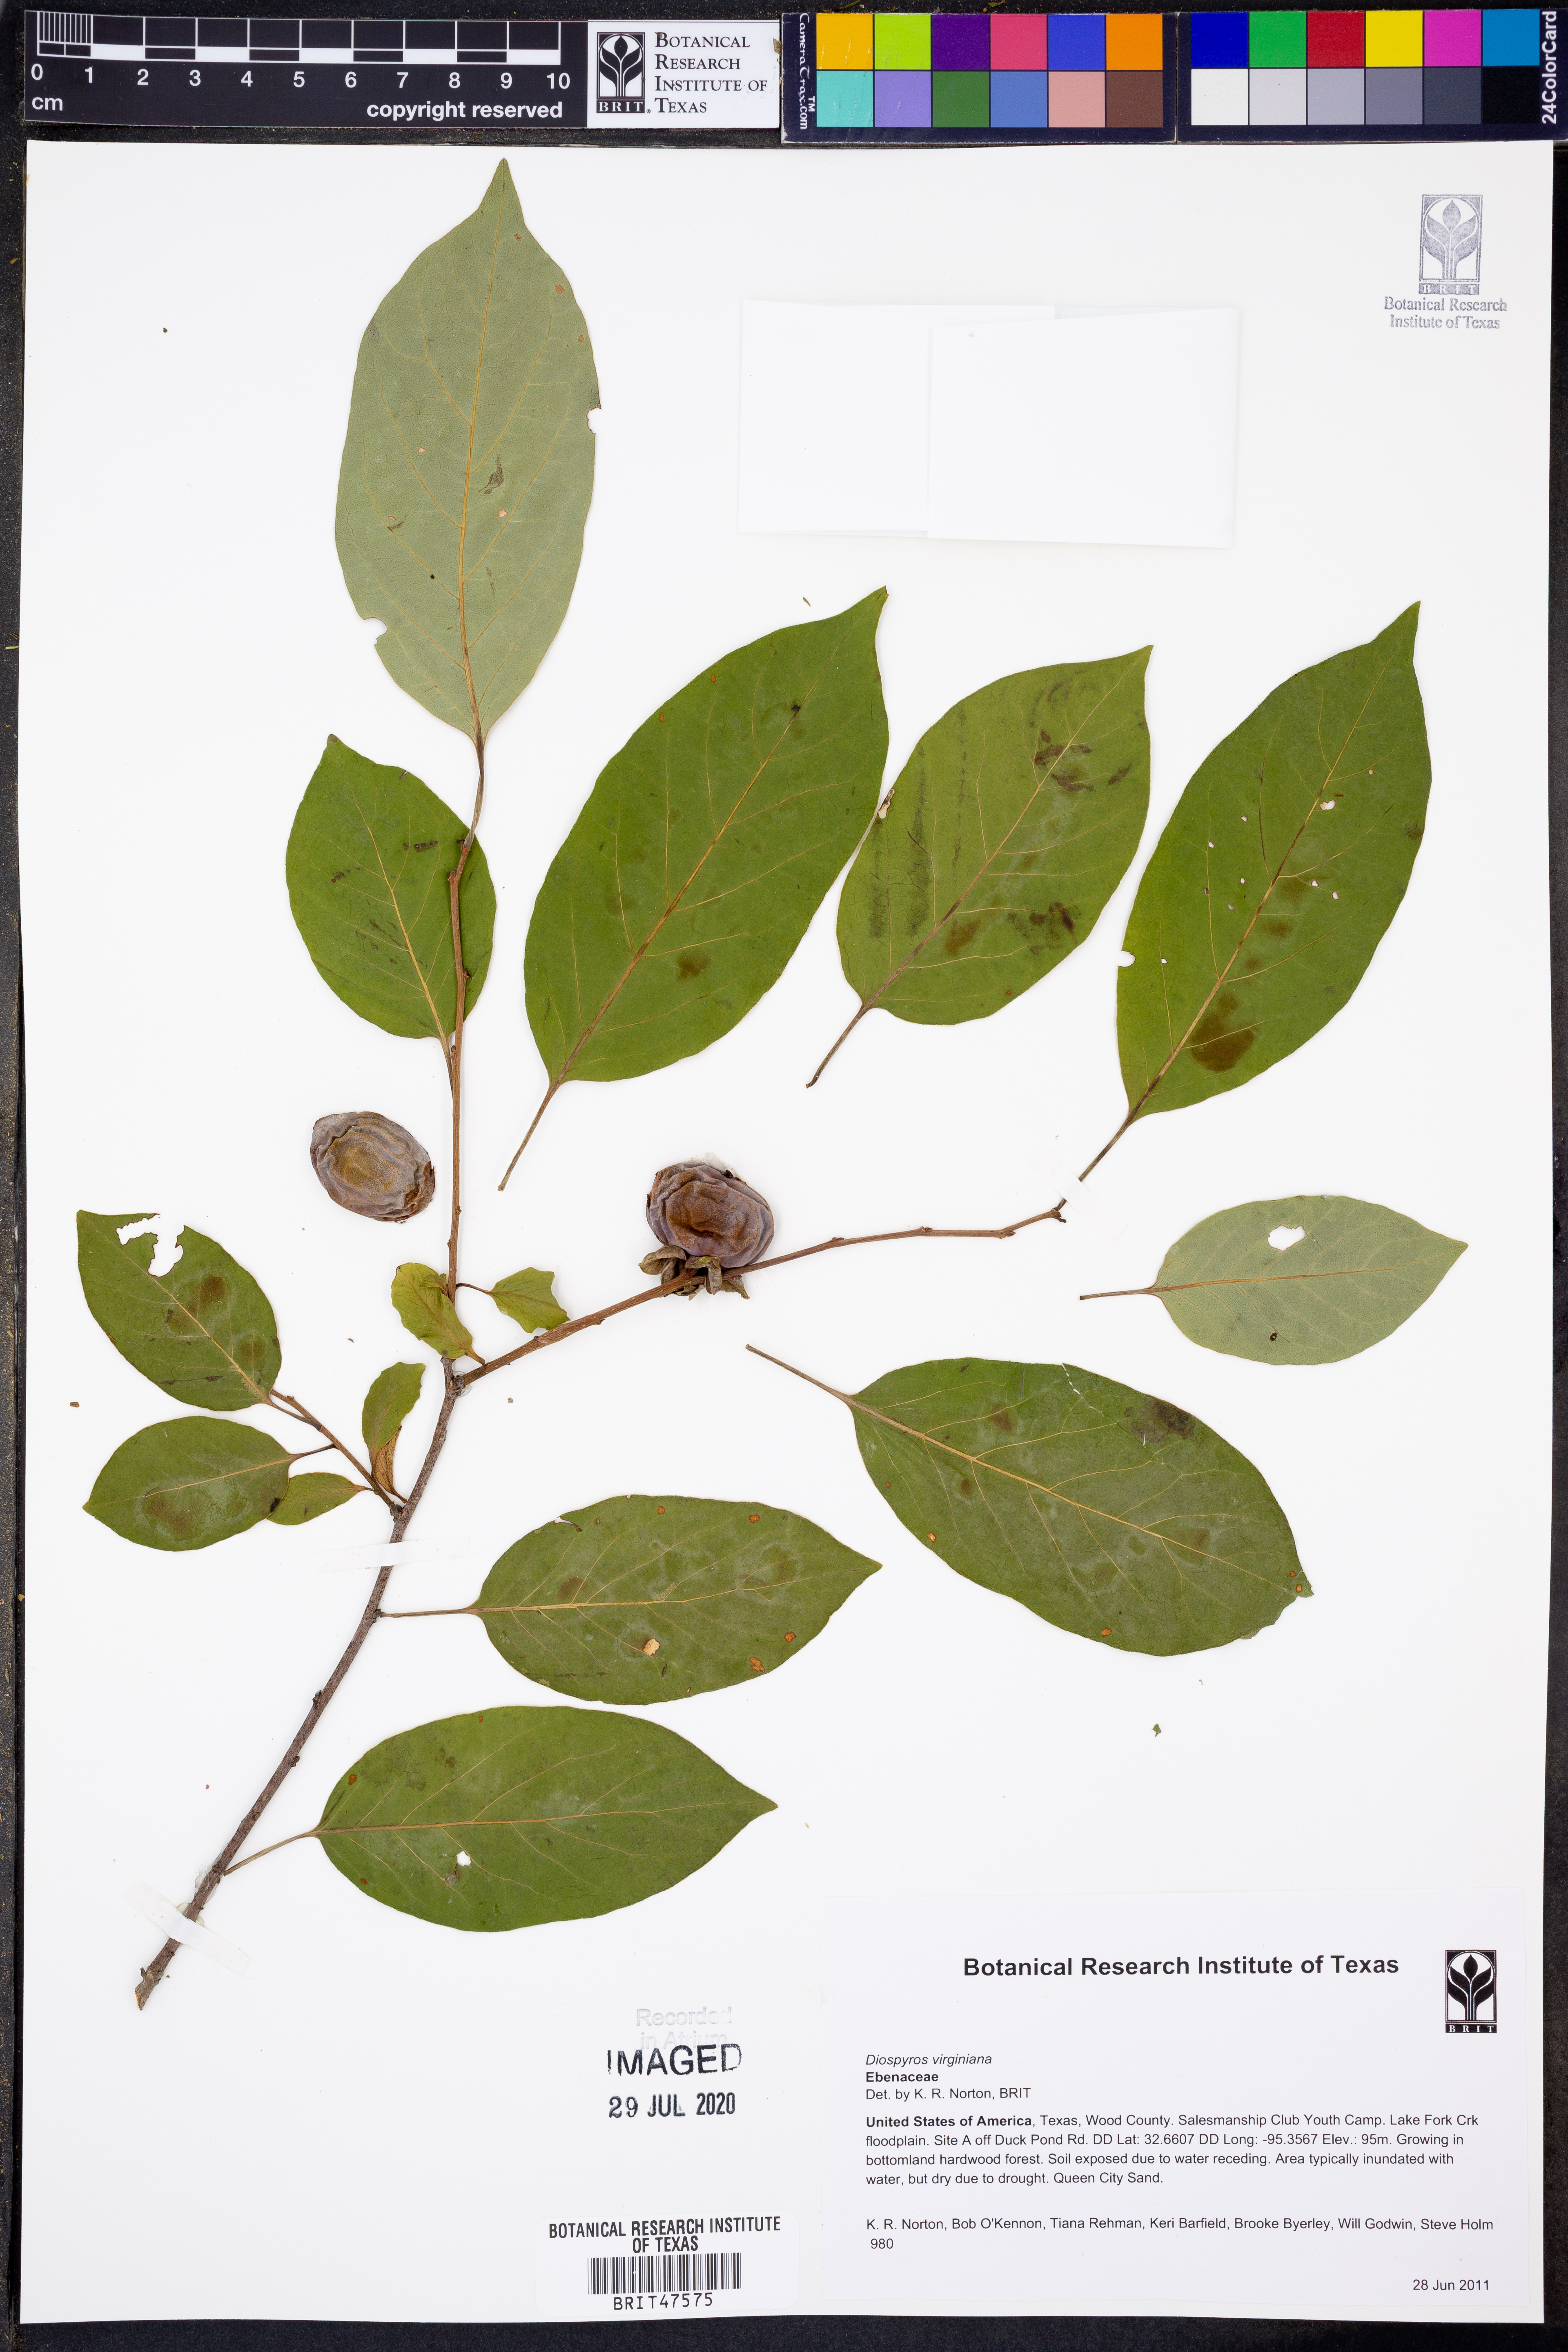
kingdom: Plantae
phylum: Tracheophyta
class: Magnoliopsida
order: Ericales
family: Ebenaceae
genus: Diospyros
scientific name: Diospyros virginiana
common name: Persimmon
